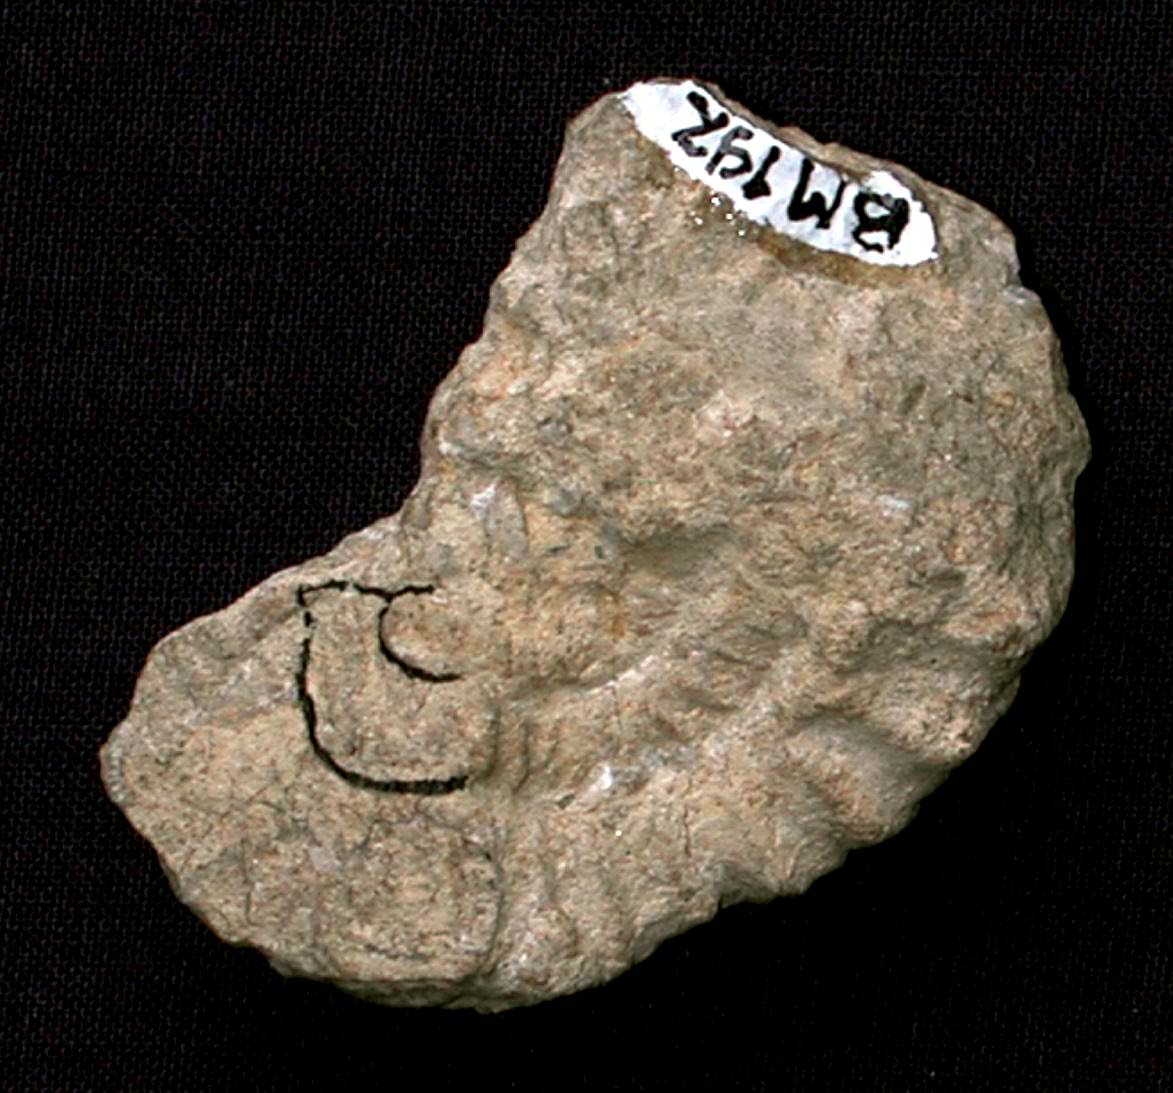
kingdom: Animalia
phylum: Mollusca
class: Cephalopoda
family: Stephanoceratidae
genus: Teloceras
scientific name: Teloceras
